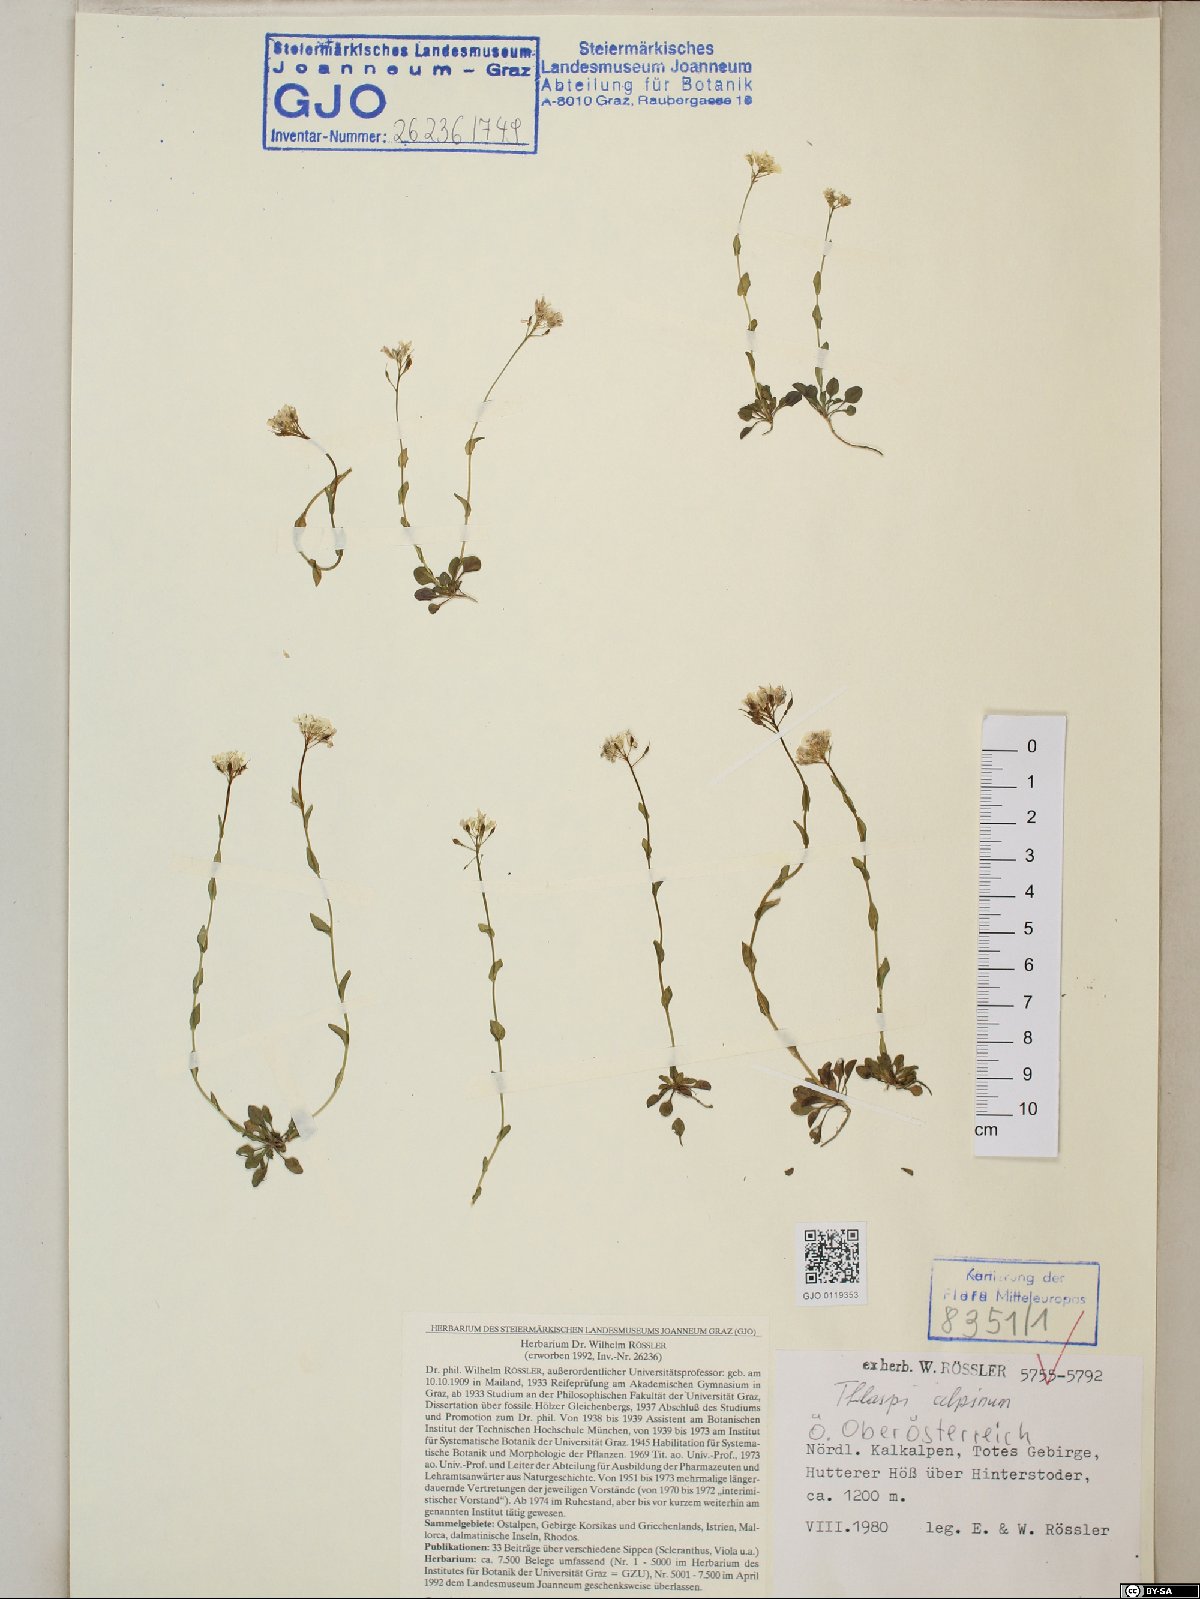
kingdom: Plantae
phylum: Tracheophyta
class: Magnoliopsida
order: Brassicales
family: Brassicaceae
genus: Noccaea
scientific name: Noccaea alpestris
